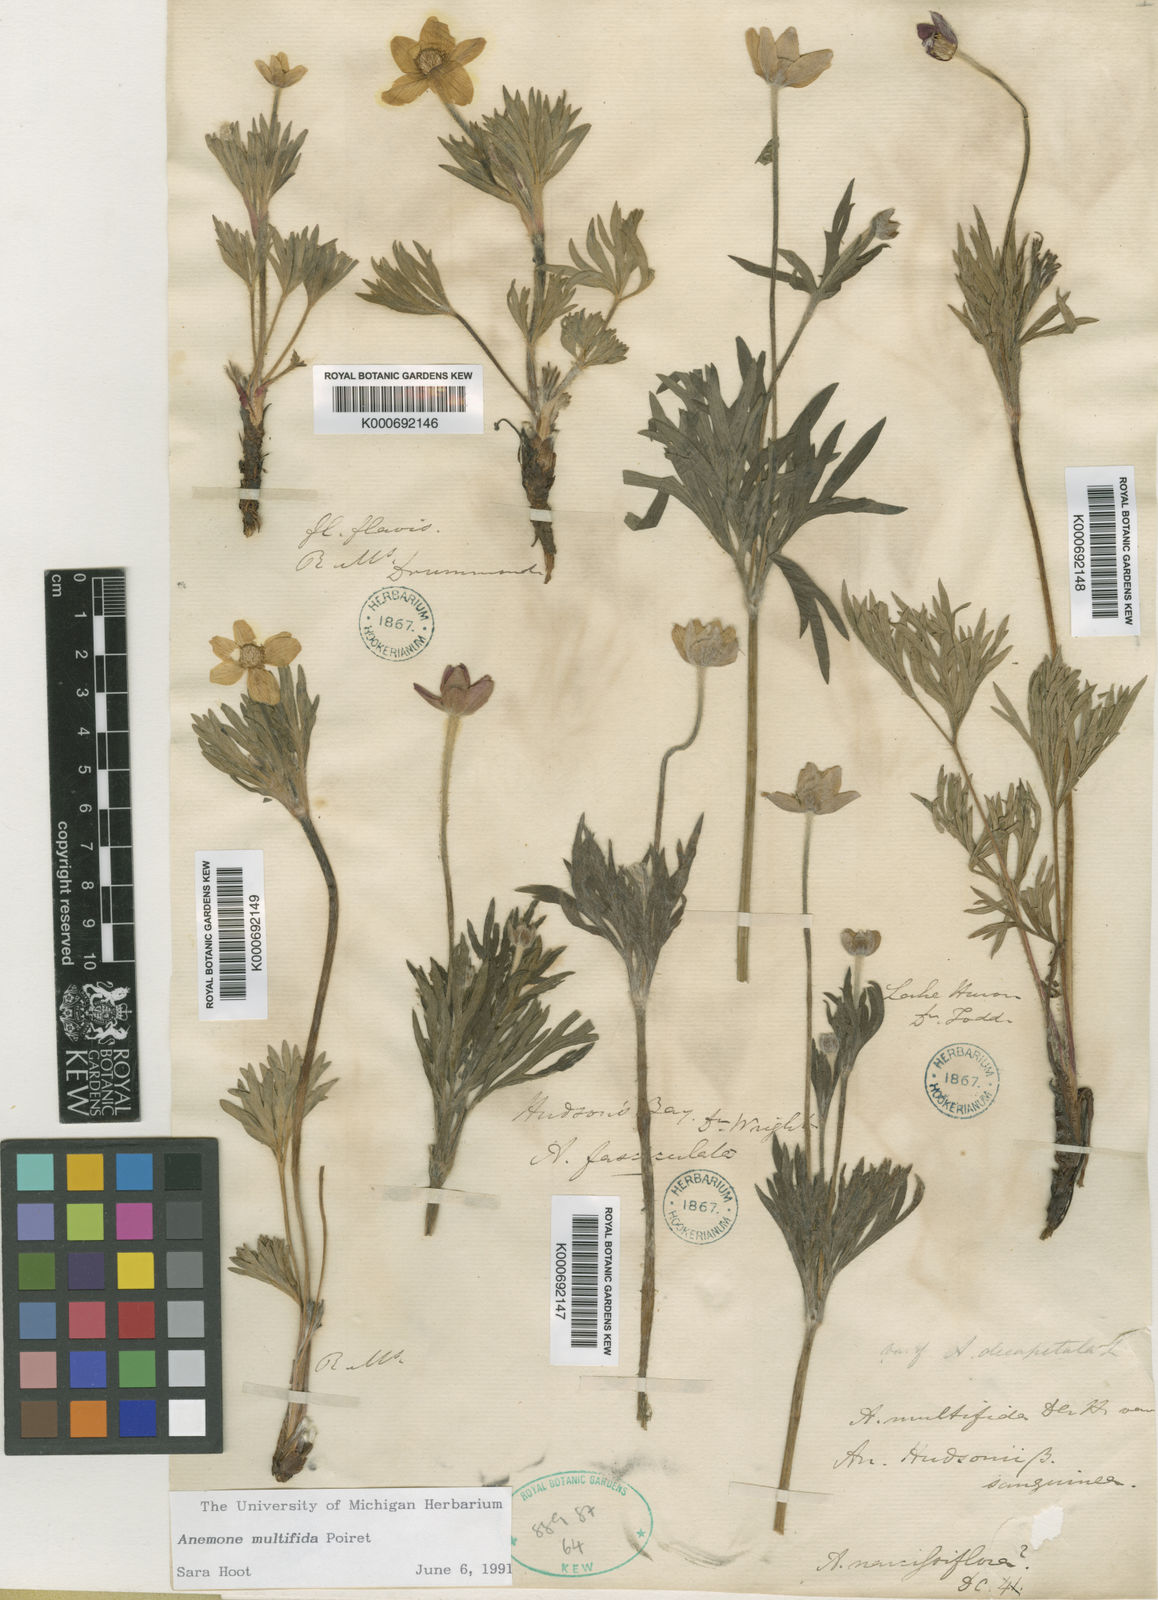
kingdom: Plantae
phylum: Tracheophyta
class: Magnoliopsida
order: Ranunculales
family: Ranunculaceae
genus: Anemone
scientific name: Anemone multifida
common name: Bird's-foot anemone
